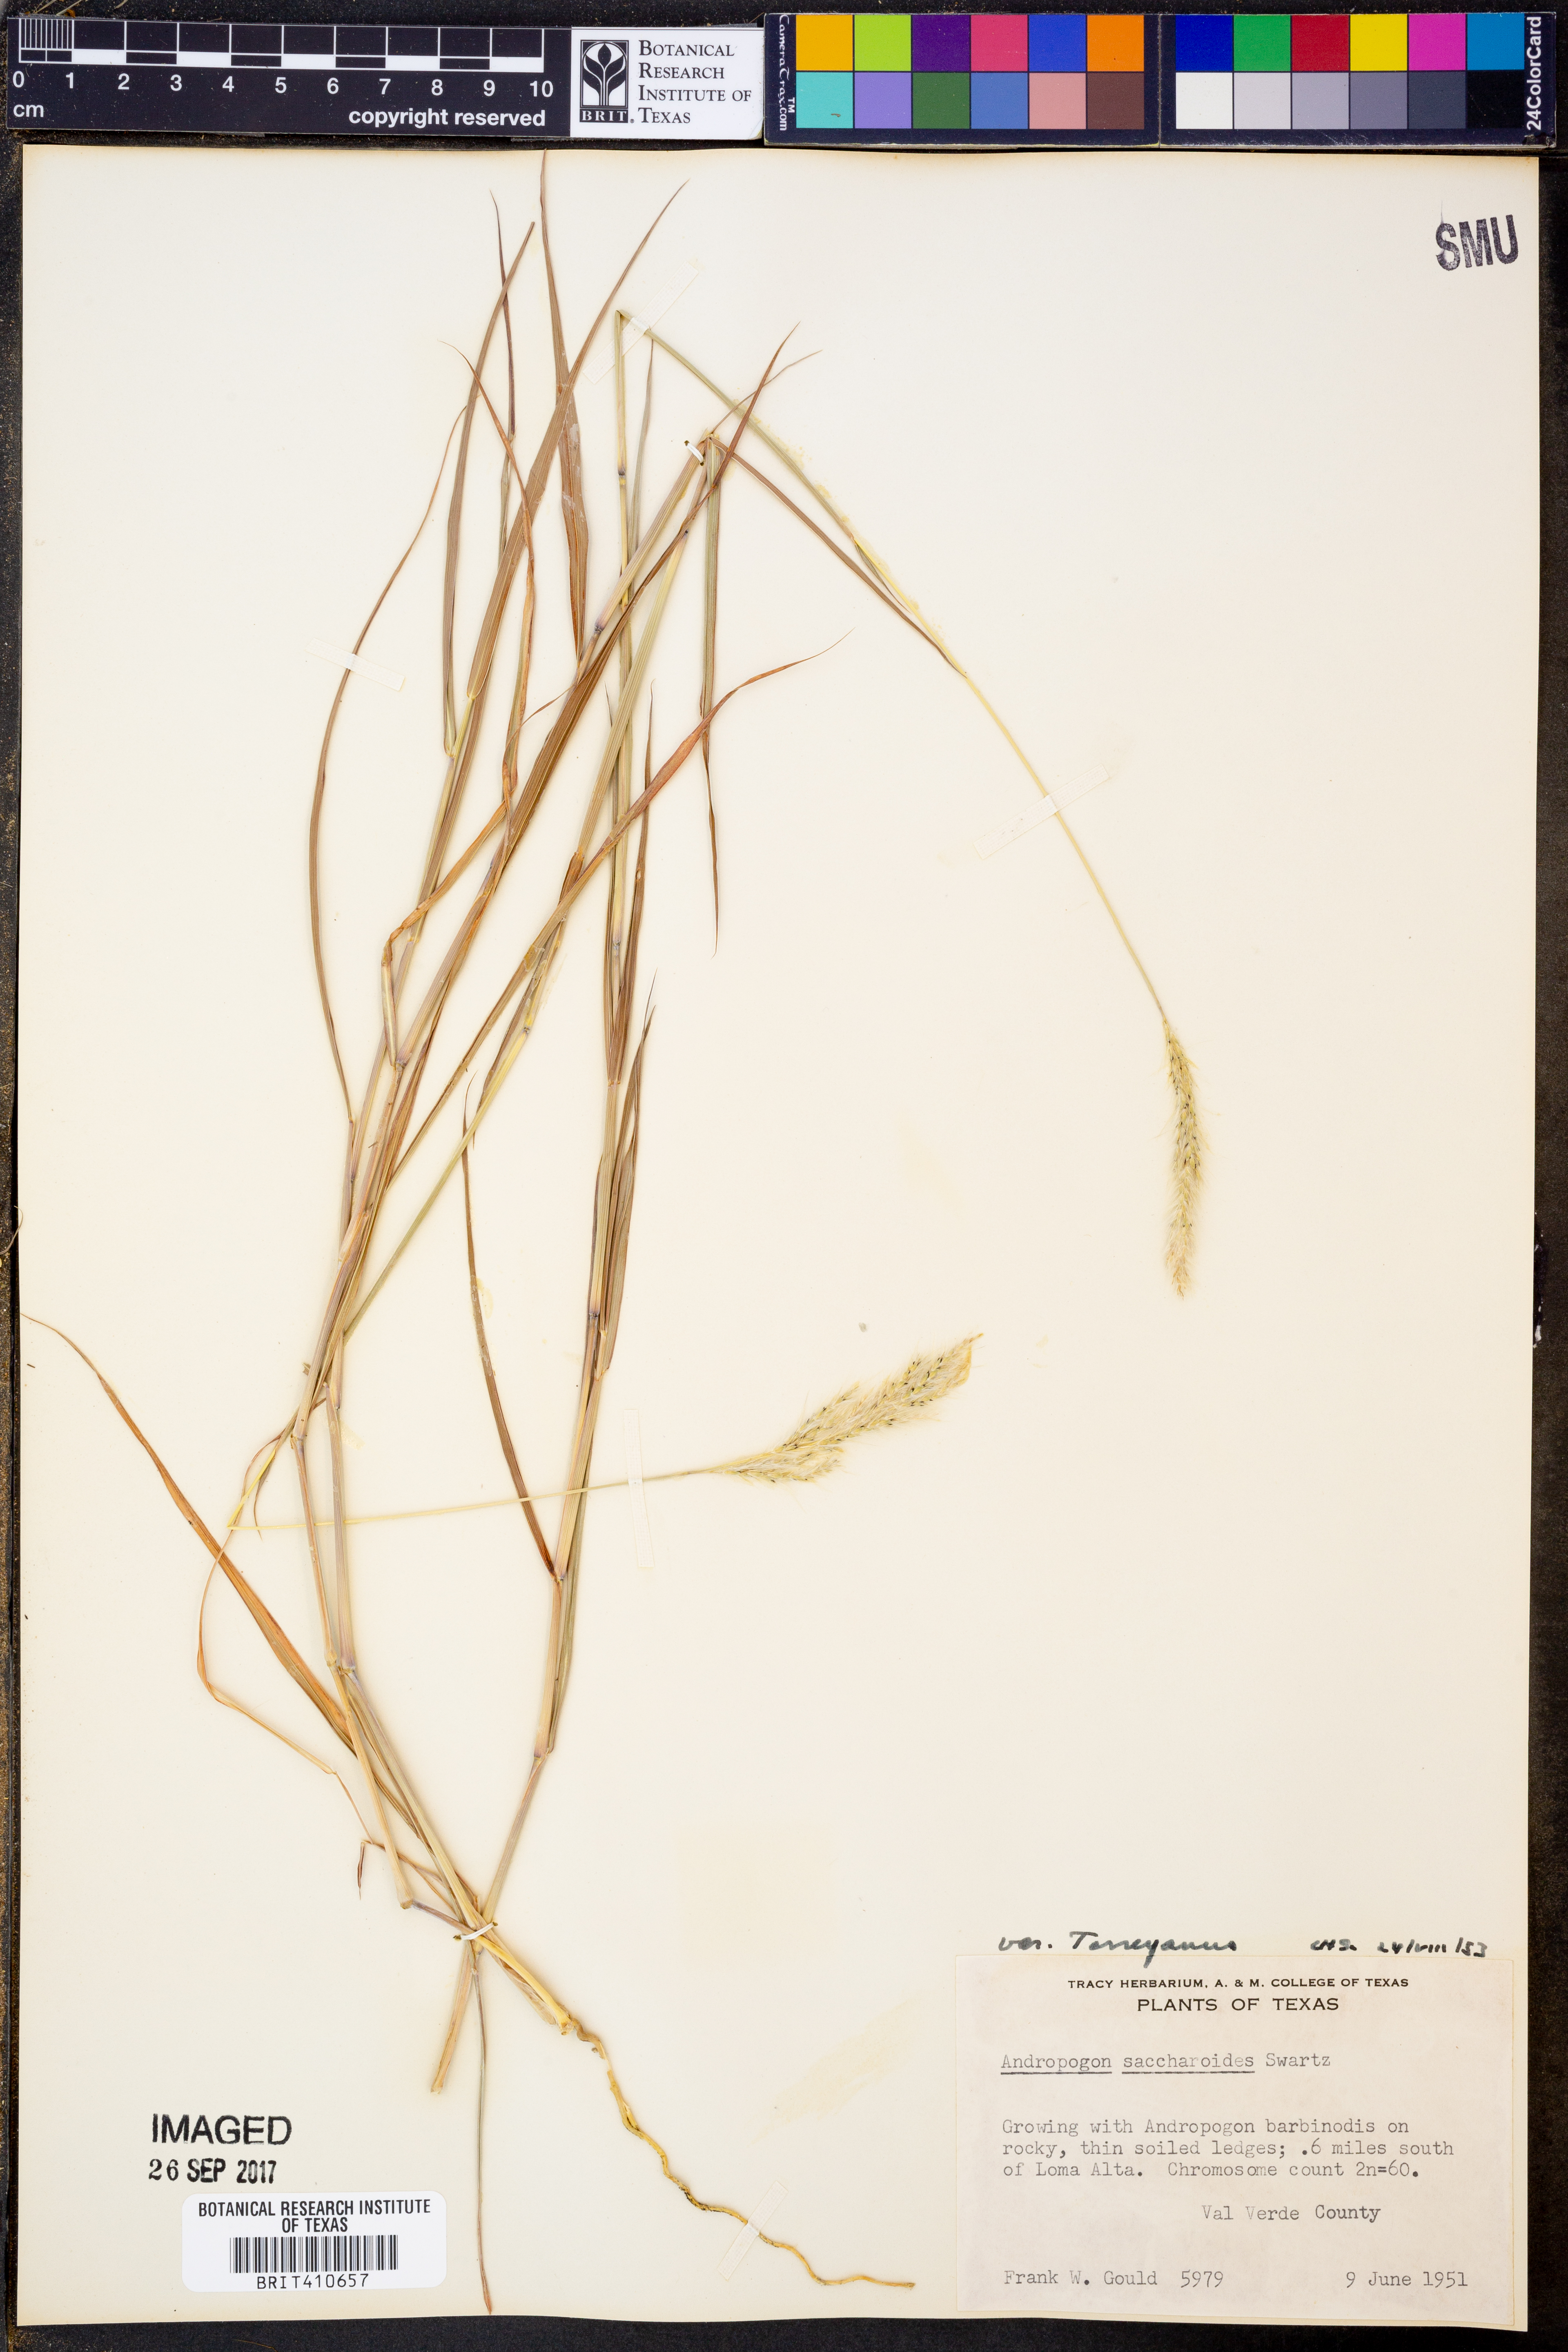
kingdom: Plantae
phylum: Tracheophyta
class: Liliopsida
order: Poales
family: Poaceae
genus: Bothriochloa
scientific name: Bothriochloa torreyana
